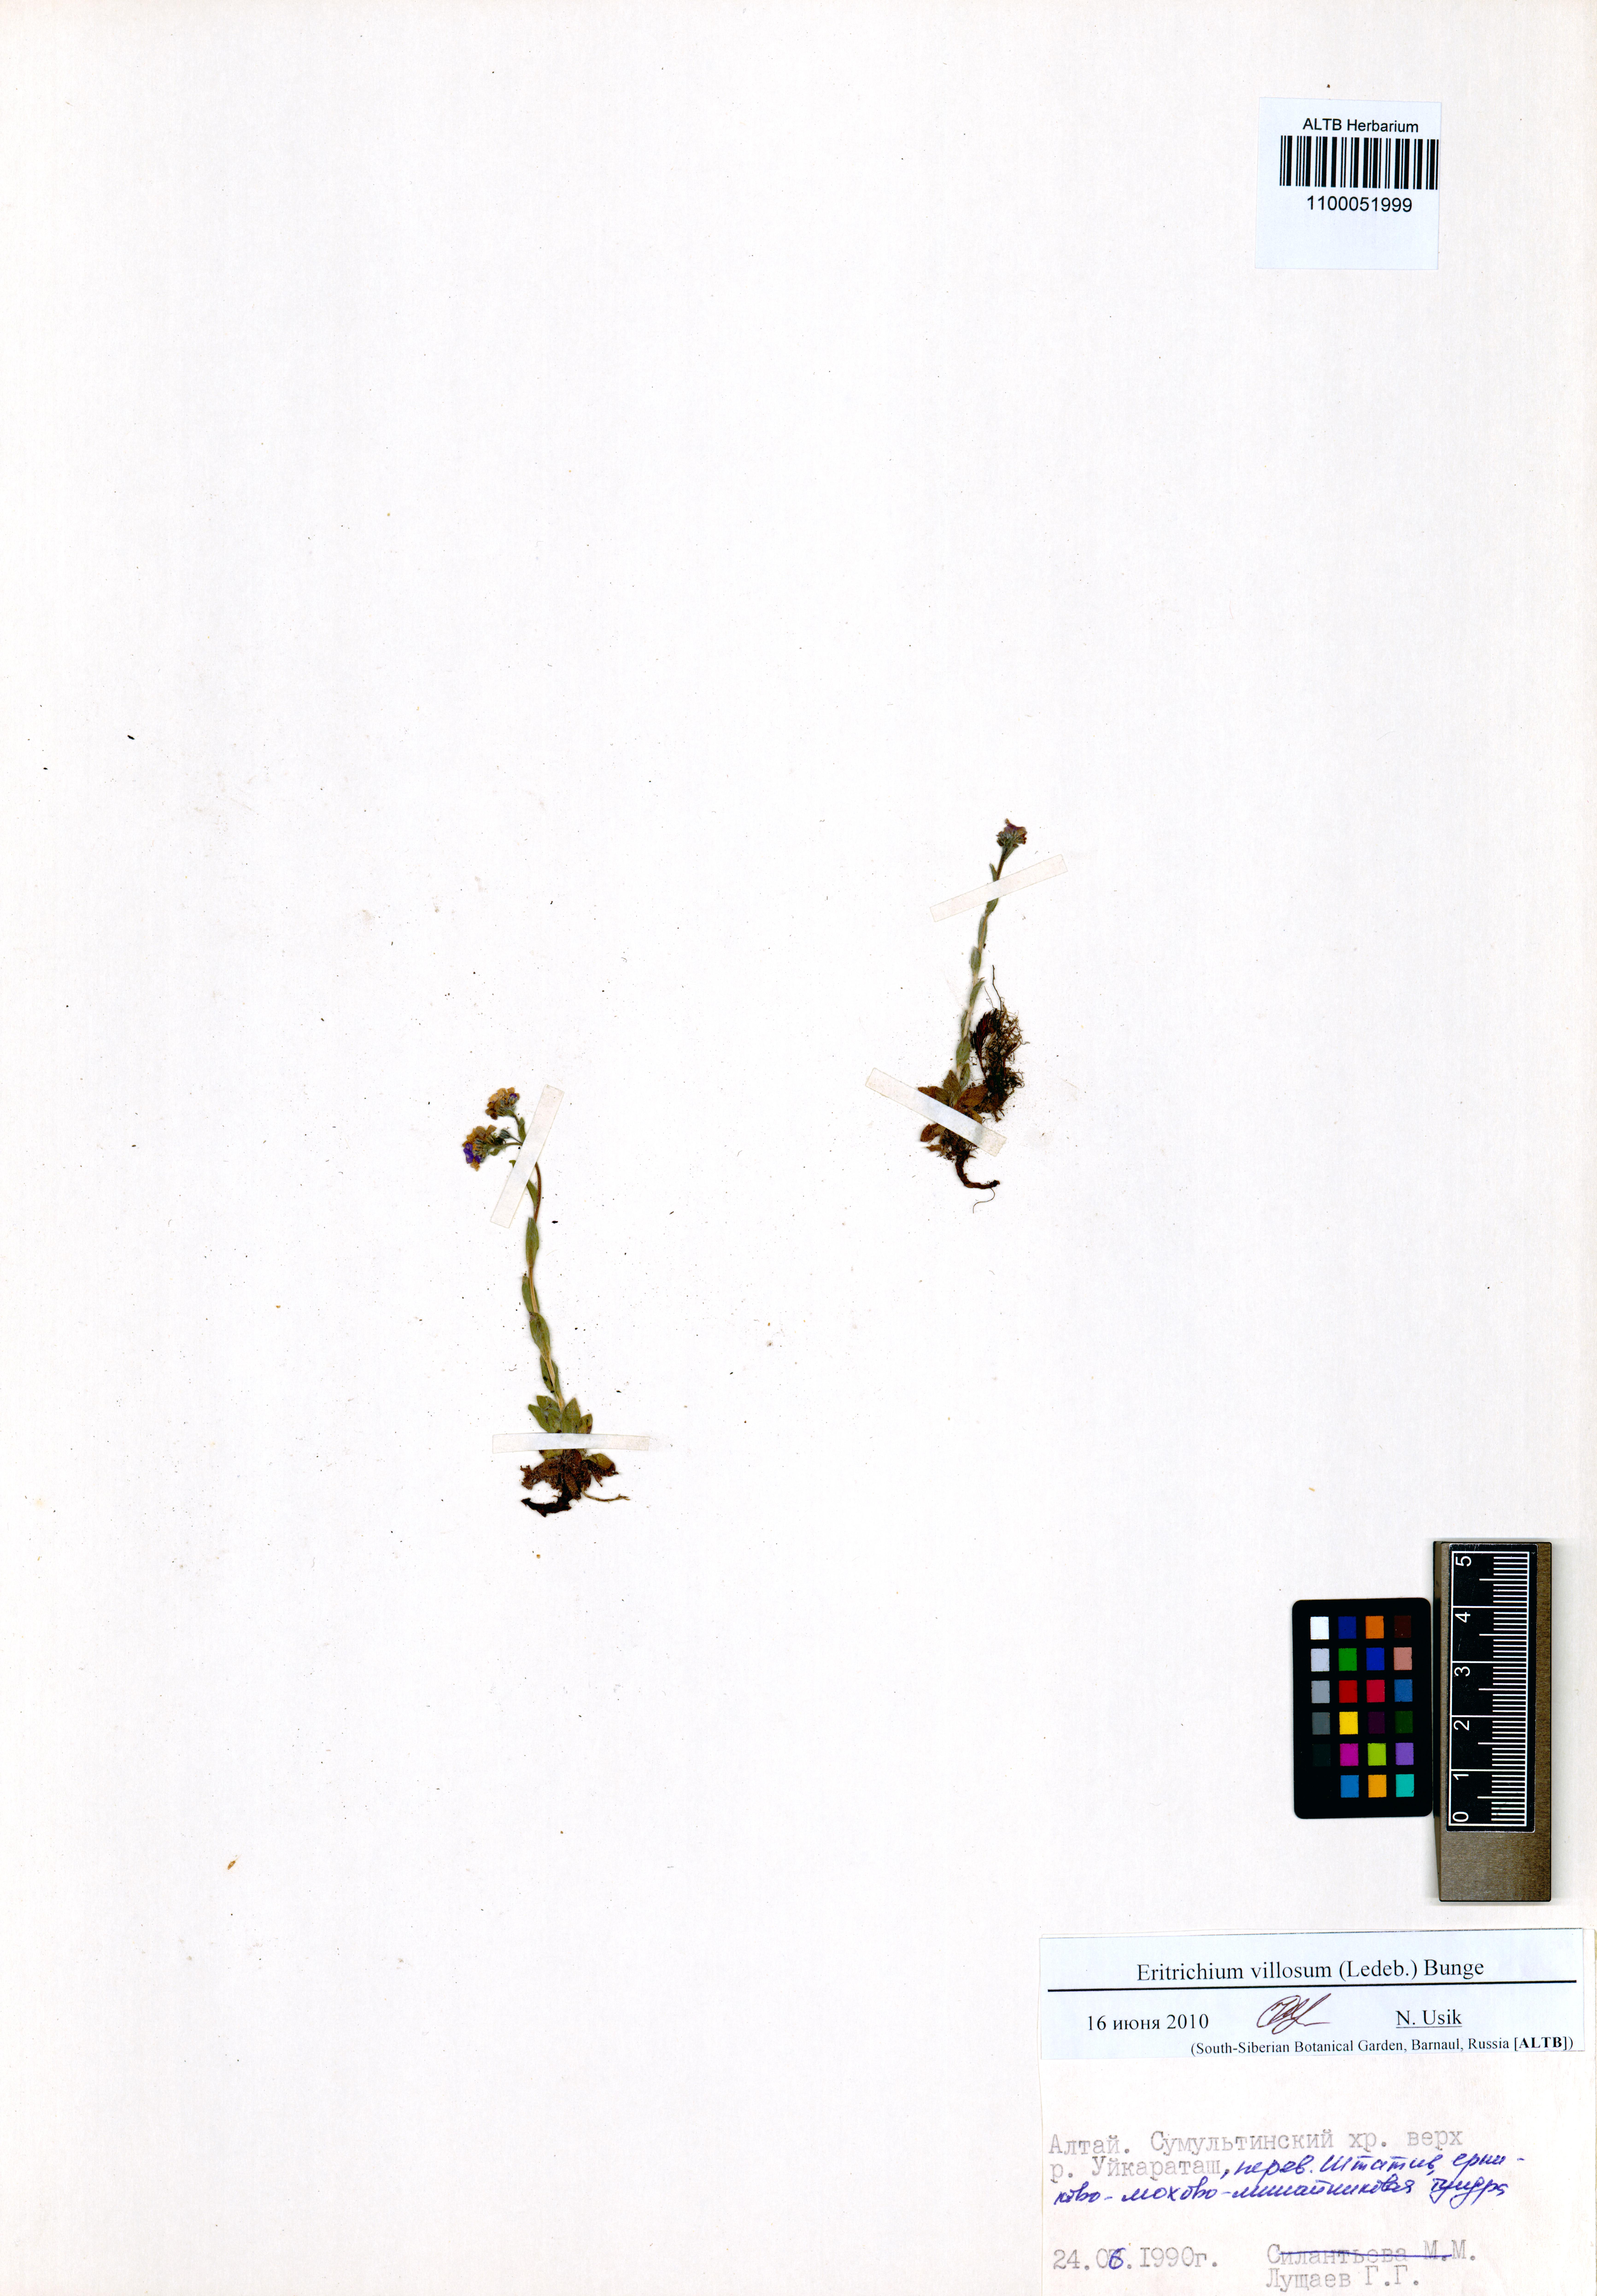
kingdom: Plantae
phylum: Tracheophyta
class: Magnoliopsida
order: Boraginales
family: Boraginaceae
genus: Eritrichium
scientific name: Eritrichium villosum
